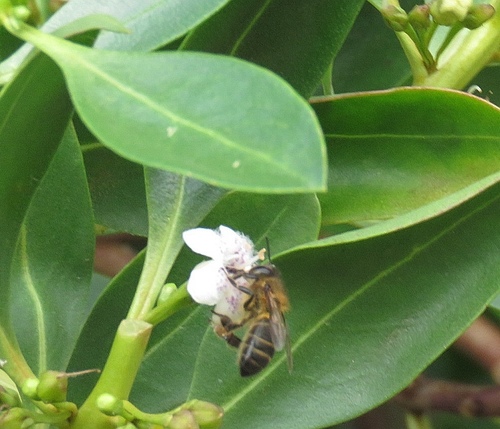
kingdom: Animalia
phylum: Arthropoda
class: Insecta
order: Hymenoptera
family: Apidae
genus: Apis
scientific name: Apis mellifera
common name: Honey bee
